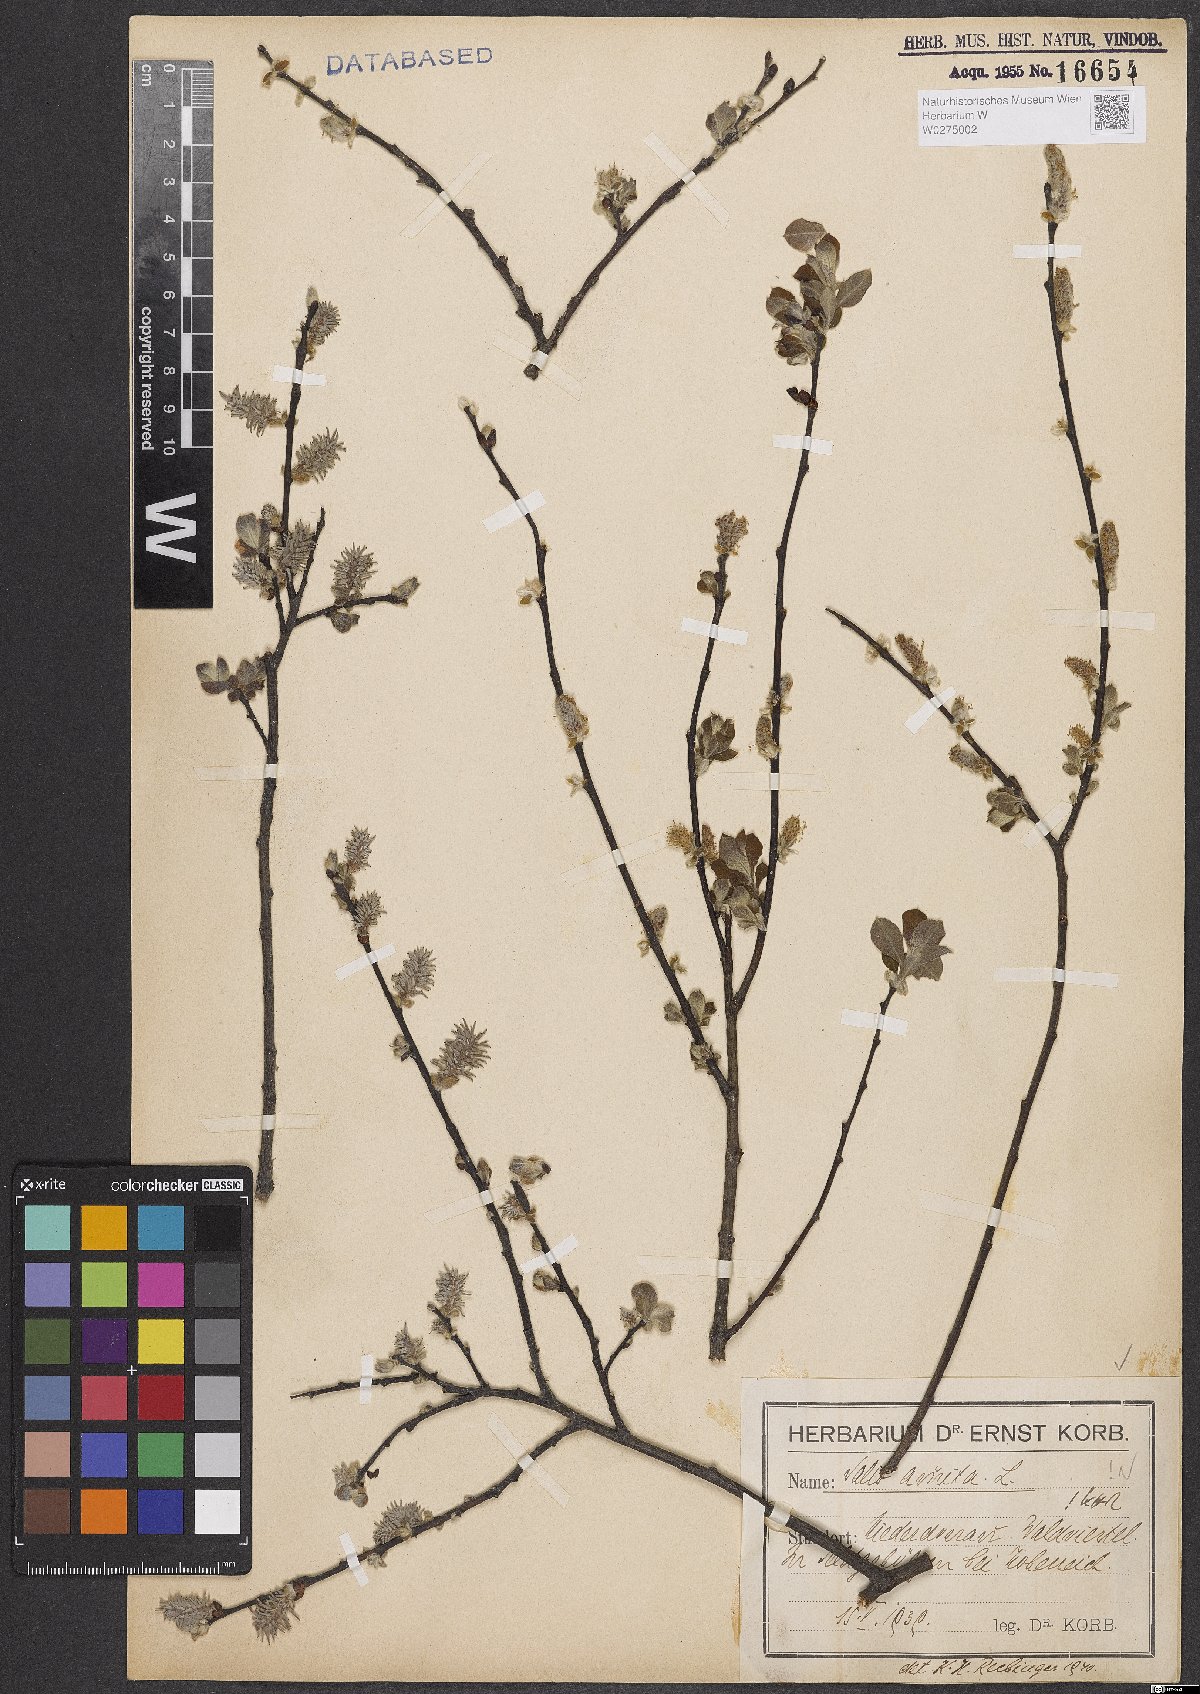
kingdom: Plantae
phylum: Tracheophyta
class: Magnoliopsida
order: Malpighiales
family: Salicaceae
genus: Salix
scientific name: Salix aurita
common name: Eared willow
